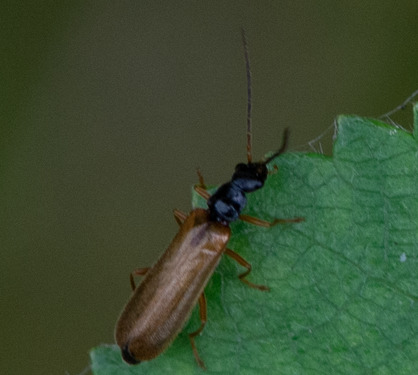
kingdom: Animalia
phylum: Arthropoda
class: Insecta
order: Coleoptera
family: Cantharidae
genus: Rhagonycha
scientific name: Rhagonycha lignosa
